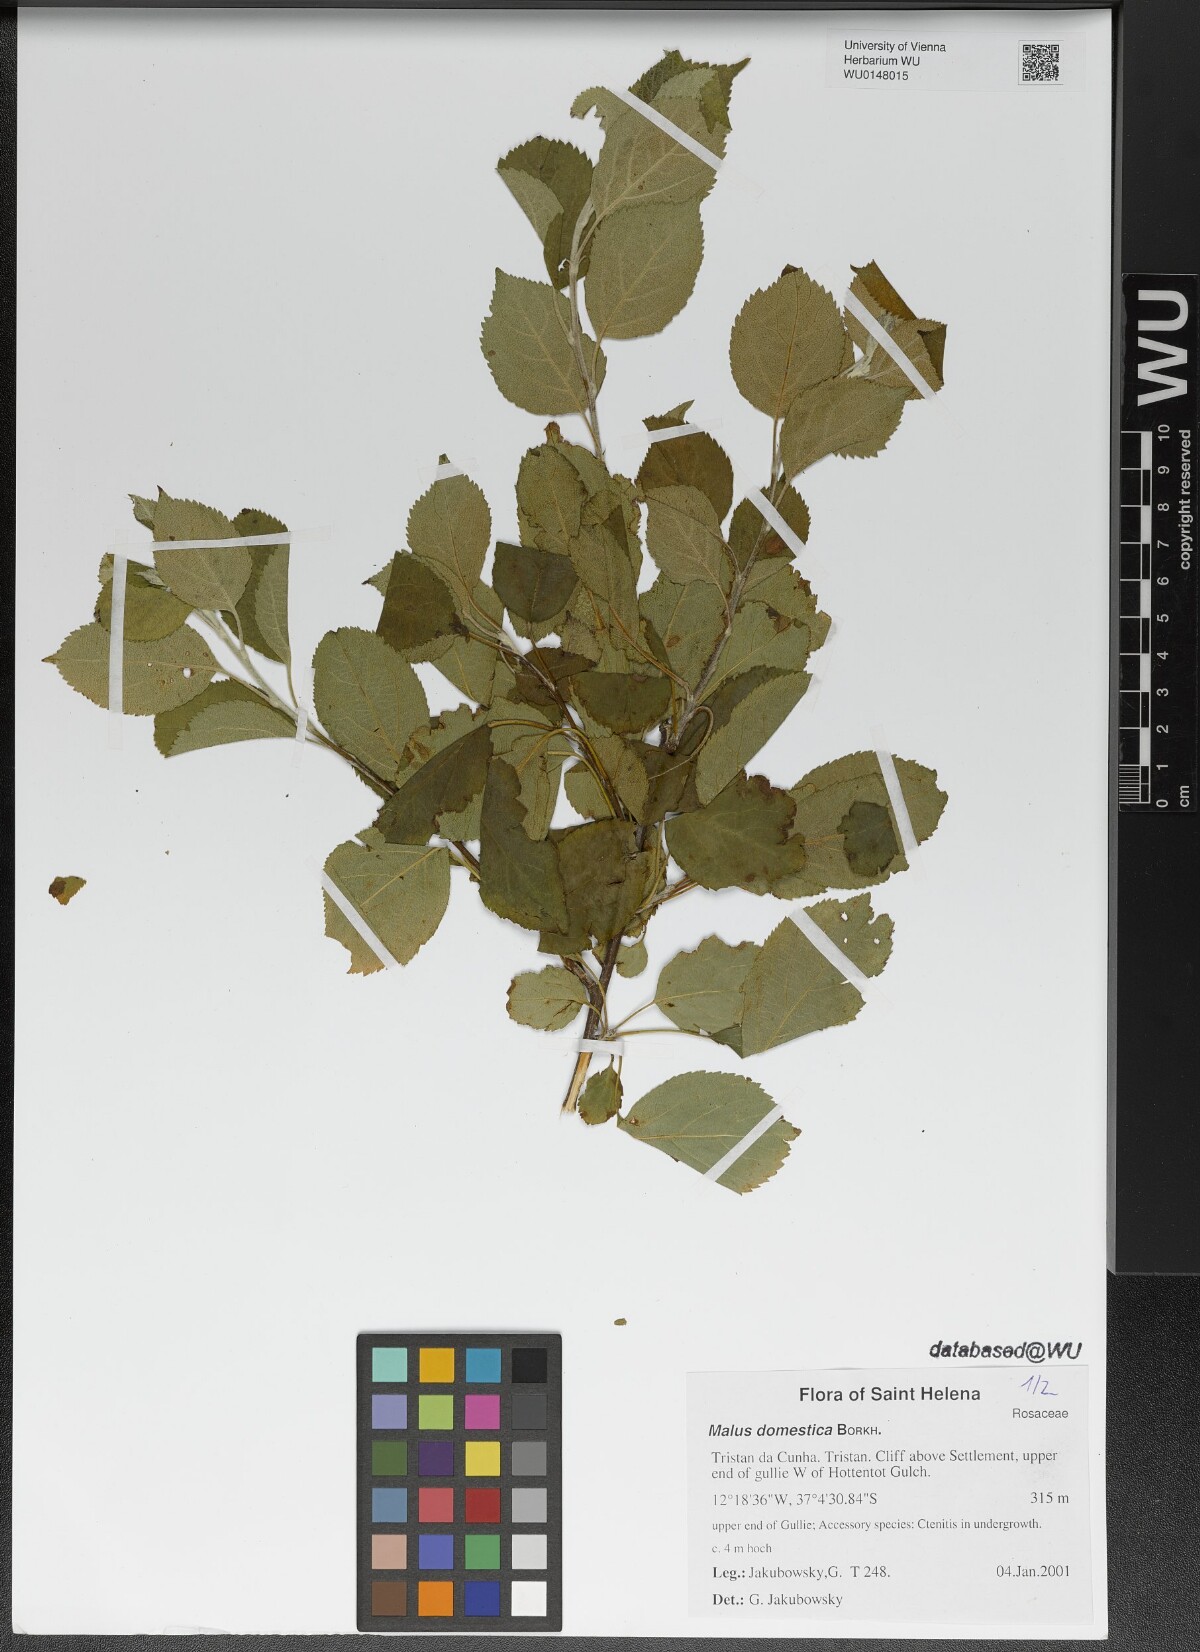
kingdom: Plantae
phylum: Tracheophyta
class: Magnoliopsida
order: Rosales
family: Rosaceae
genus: Malus
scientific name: Malus domestica
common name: Apple
